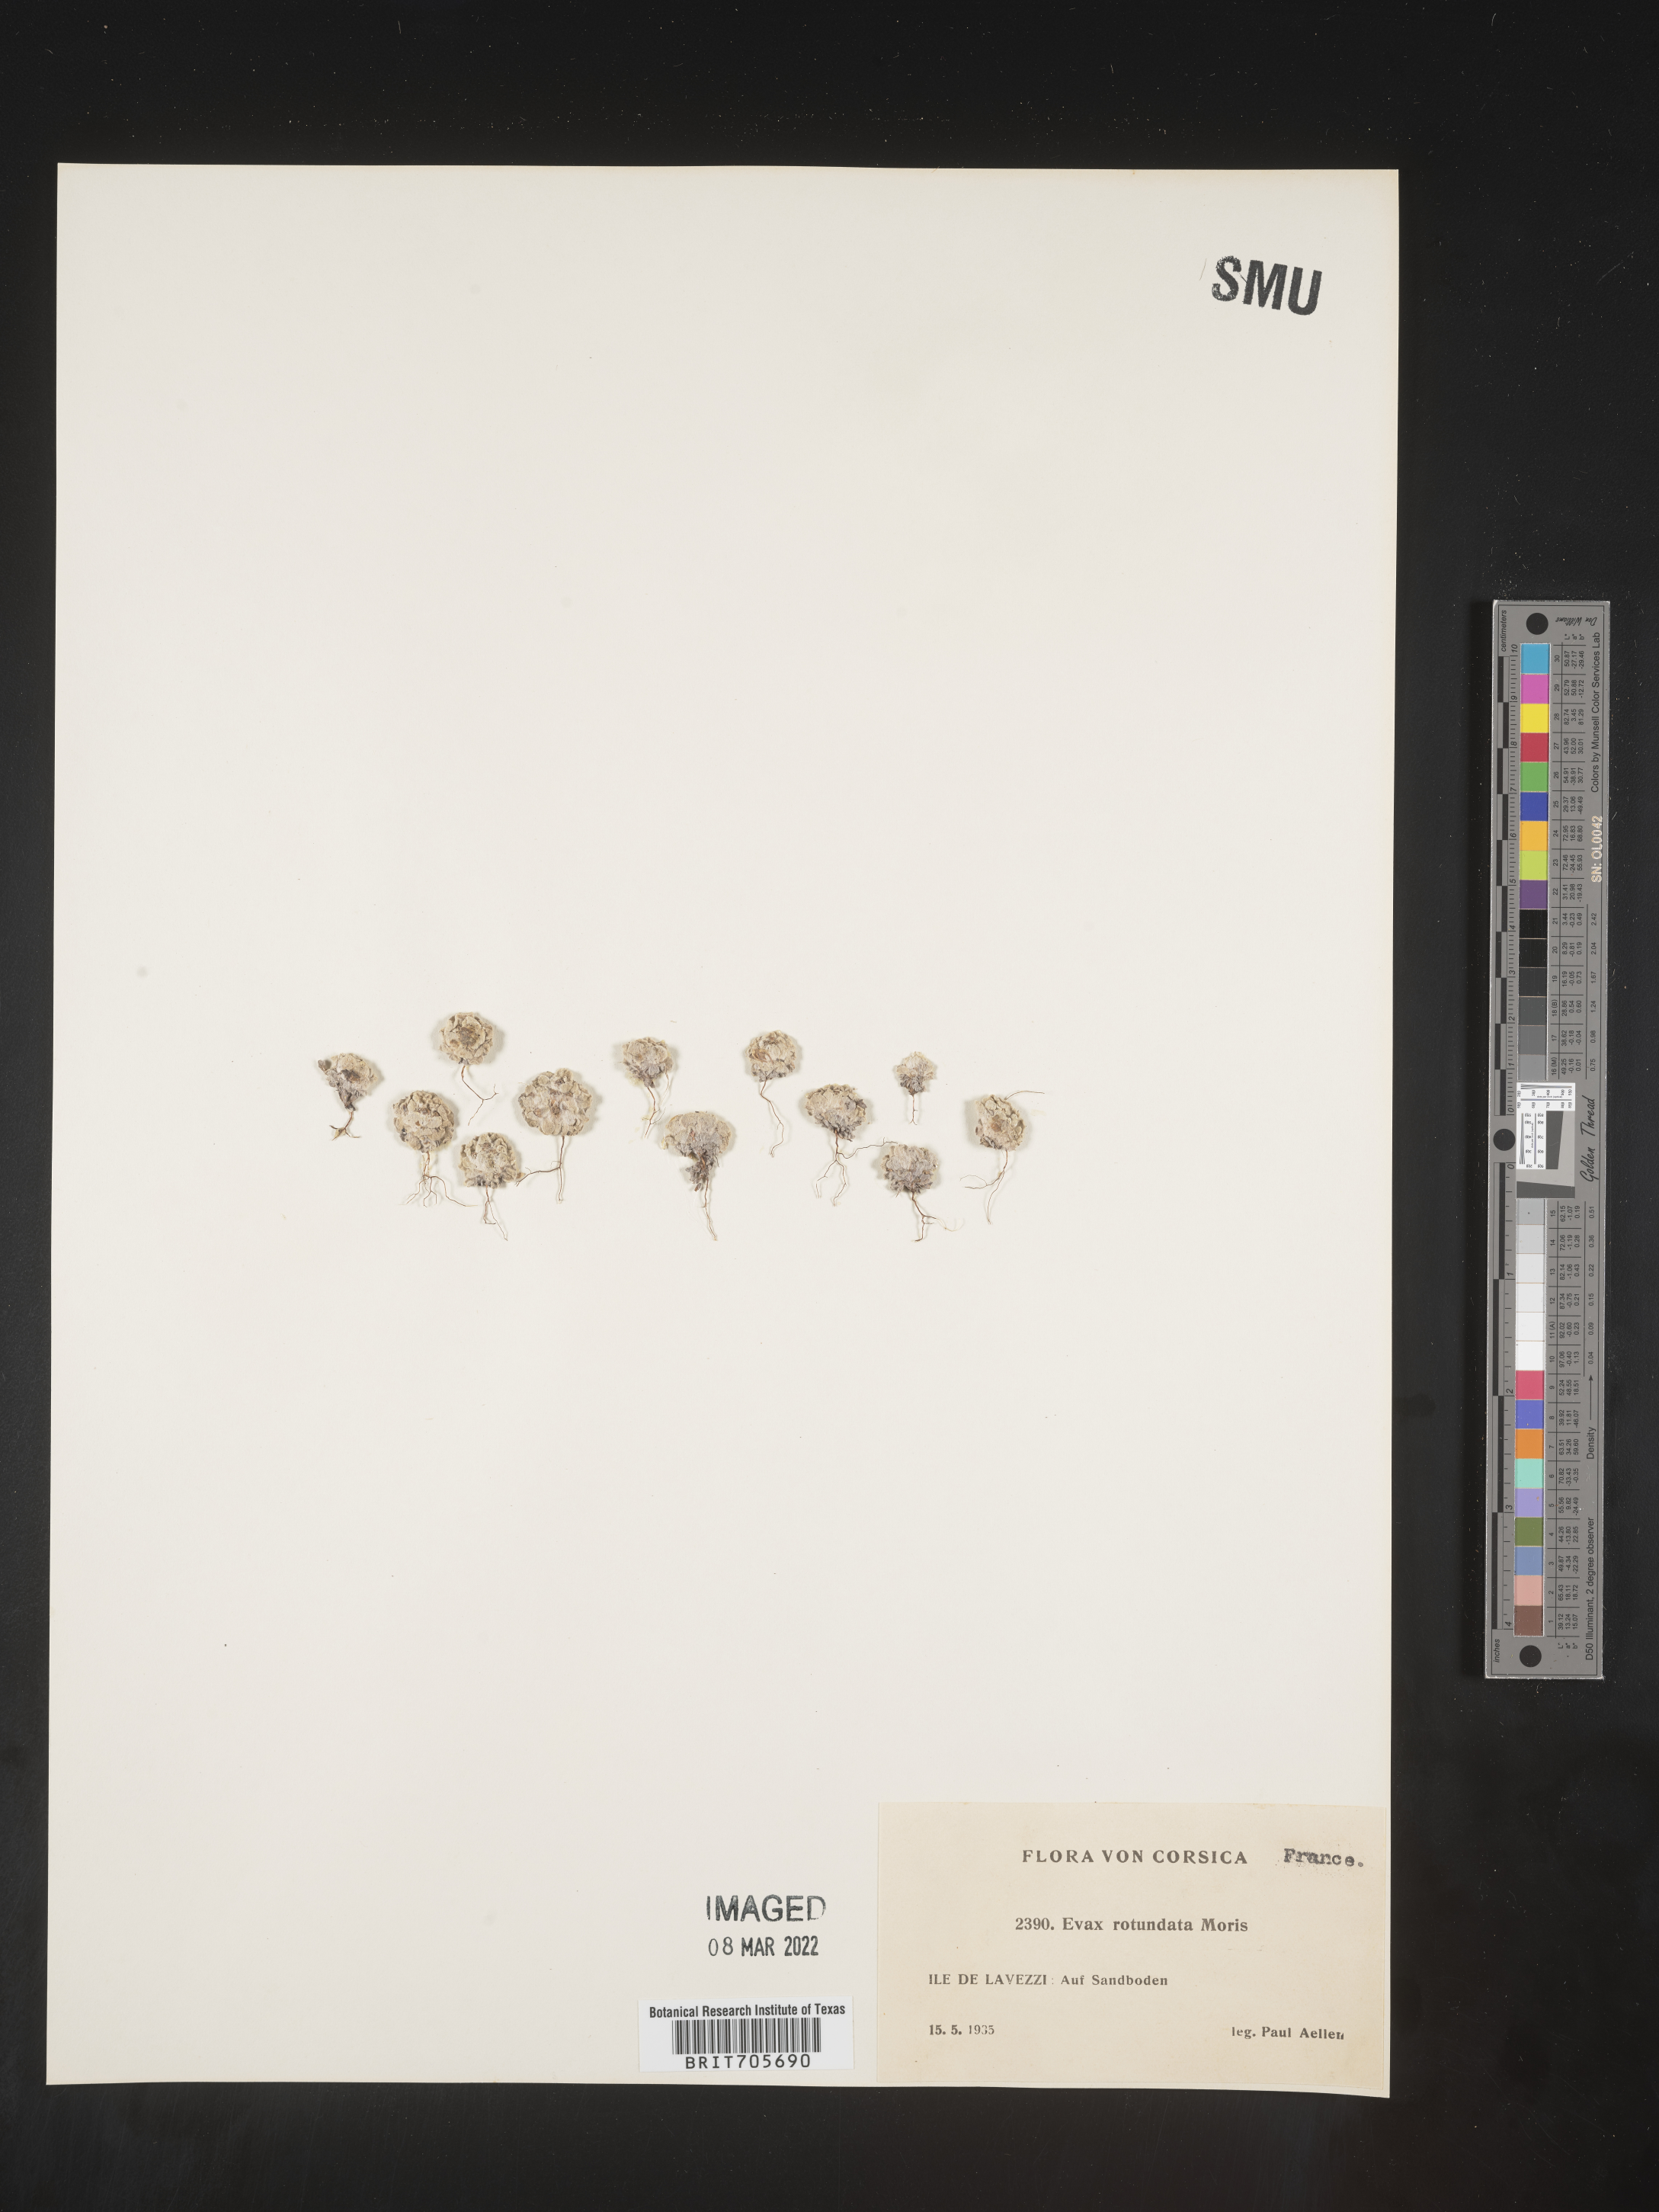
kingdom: Plantae
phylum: Tracheophyta
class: Magnoliopsida
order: Asterales
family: Asteraceae
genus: Filago
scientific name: Filago
